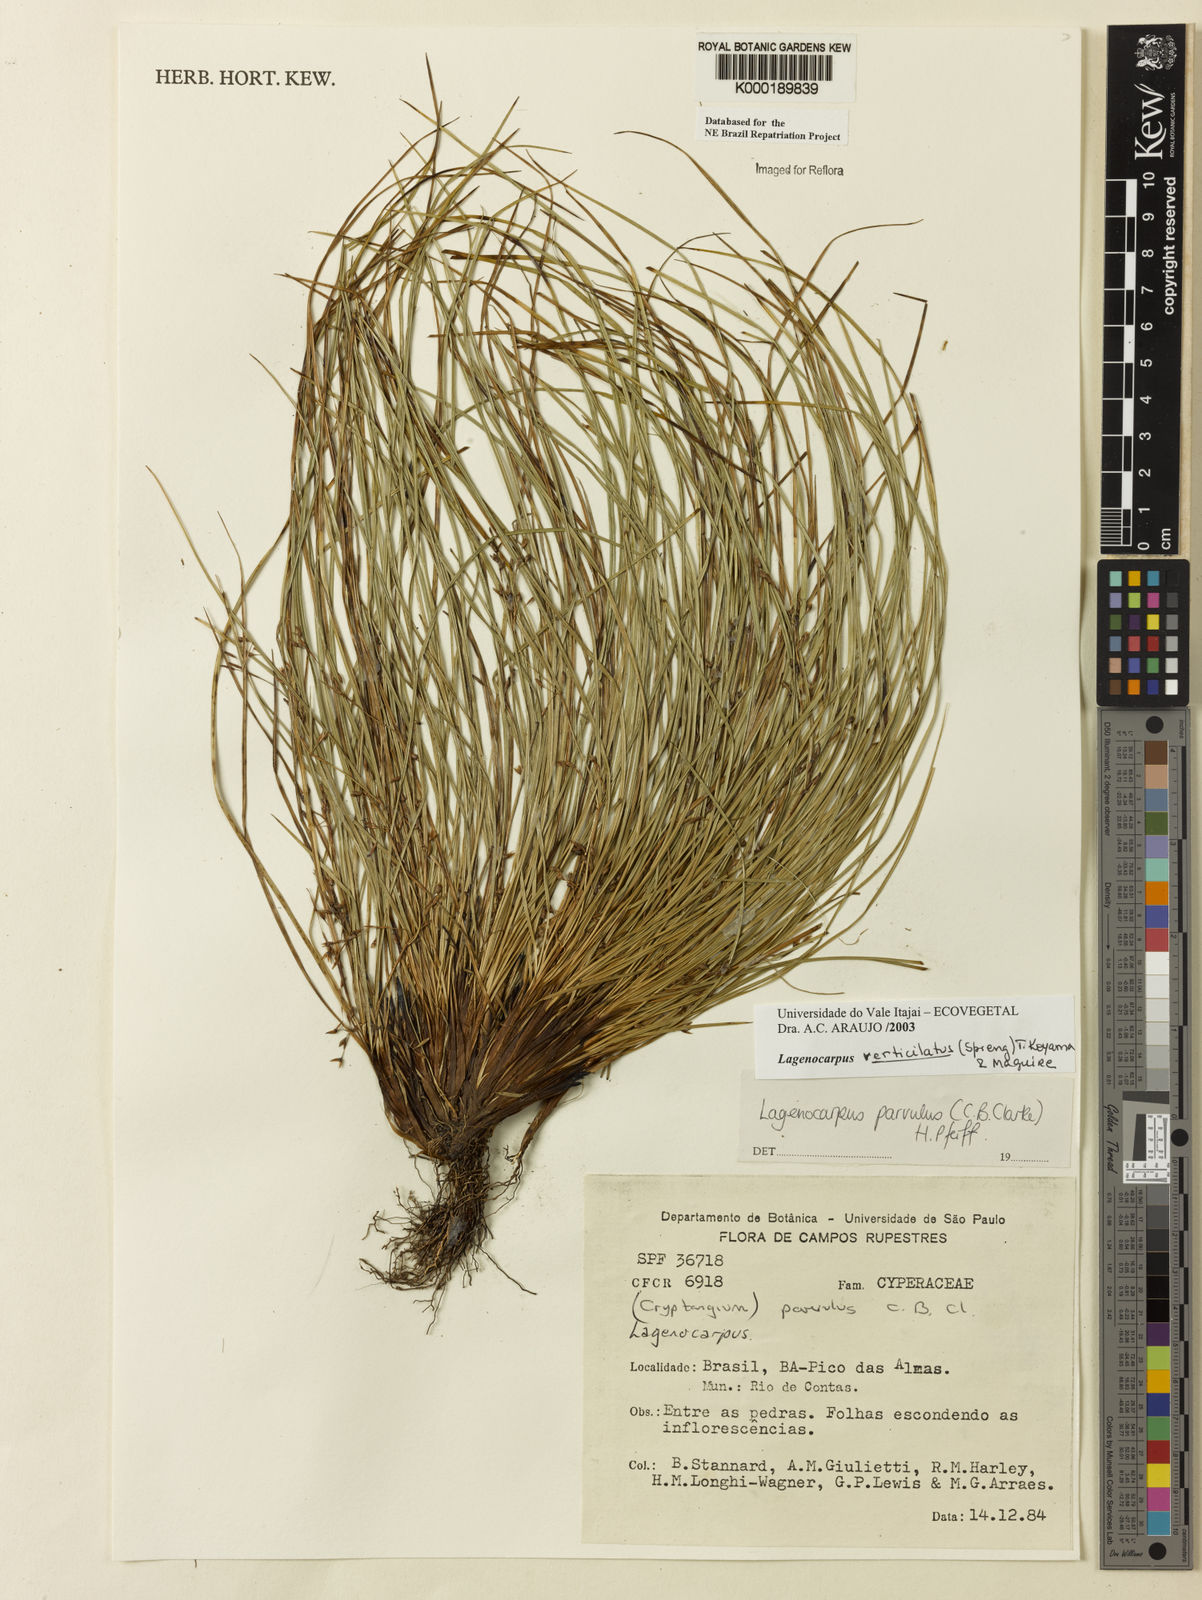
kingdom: Plantae
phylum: Tracheophyta
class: Liliopsida
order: Poales
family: Cyperaceae
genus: Cryptangium
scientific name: Cryptangium verticillatum
